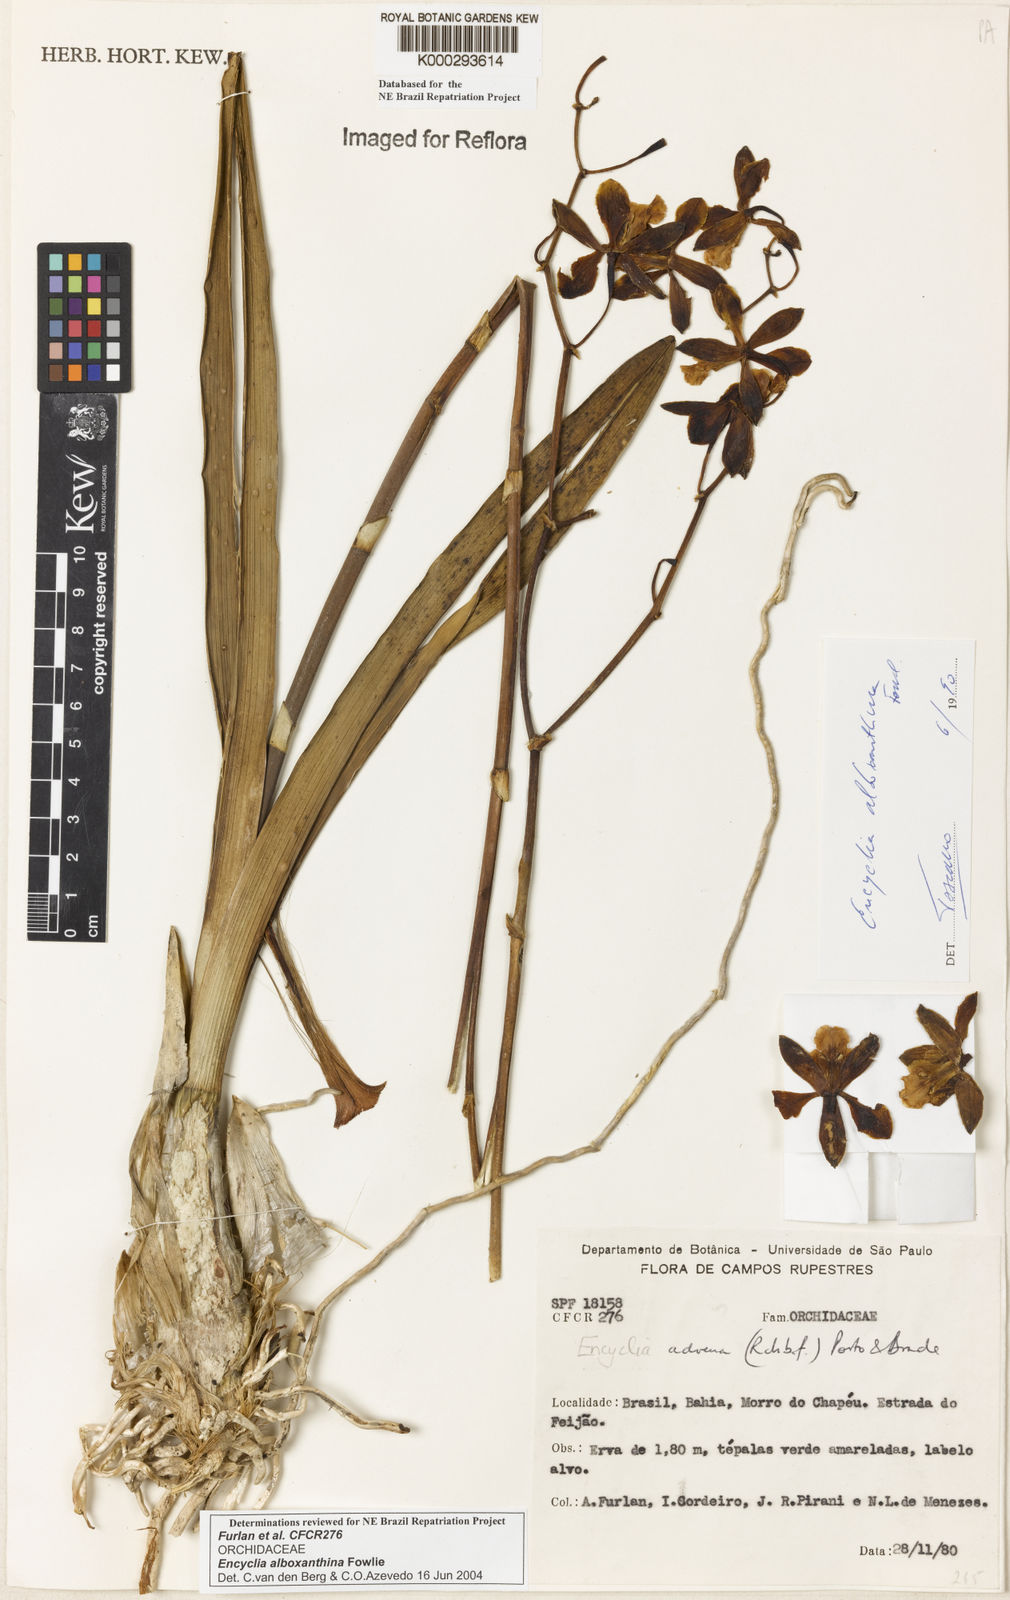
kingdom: Plantae
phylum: Tracheophyta
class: Liliopsida
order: Asparagales
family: Orchidaceae
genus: Encyclia
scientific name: Encyclia alboxanthina
